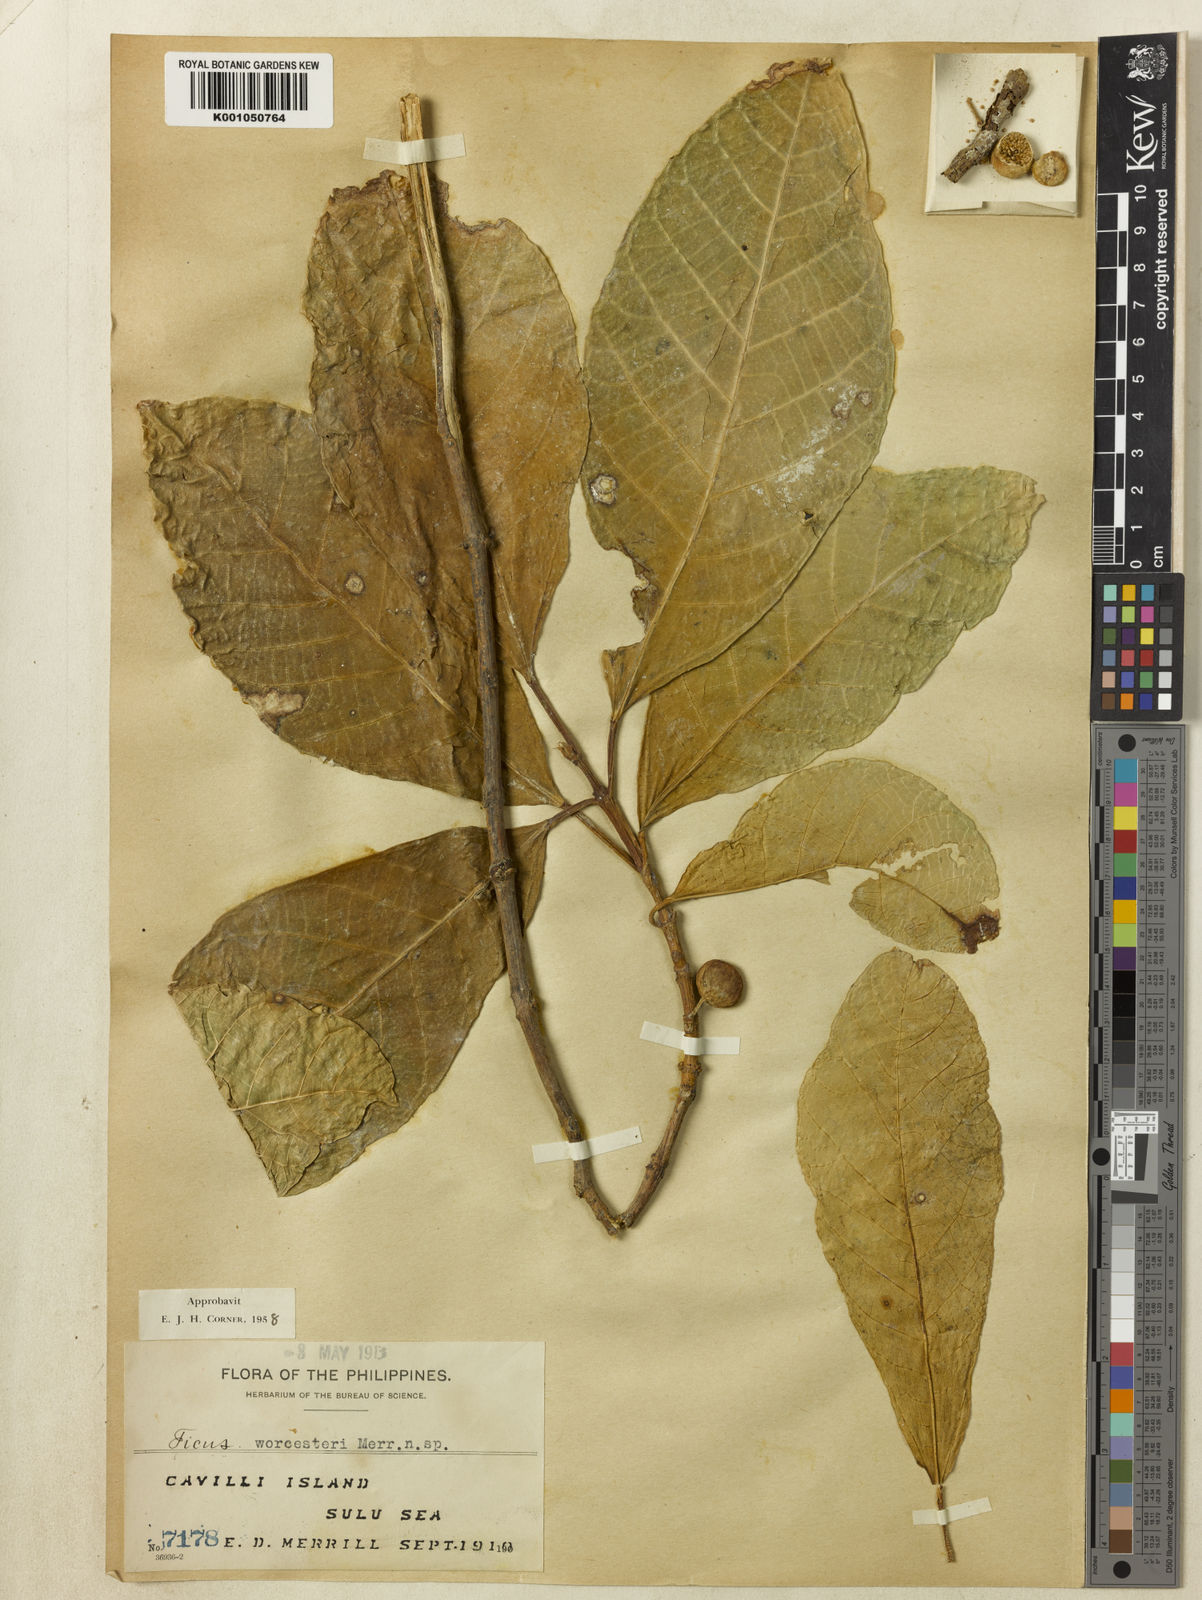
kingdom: Plantae
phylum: Tracheophyta
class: Magnoliopsida
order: Rosales
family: Moraceae
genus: Ficus
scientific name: Ficus cumingii
